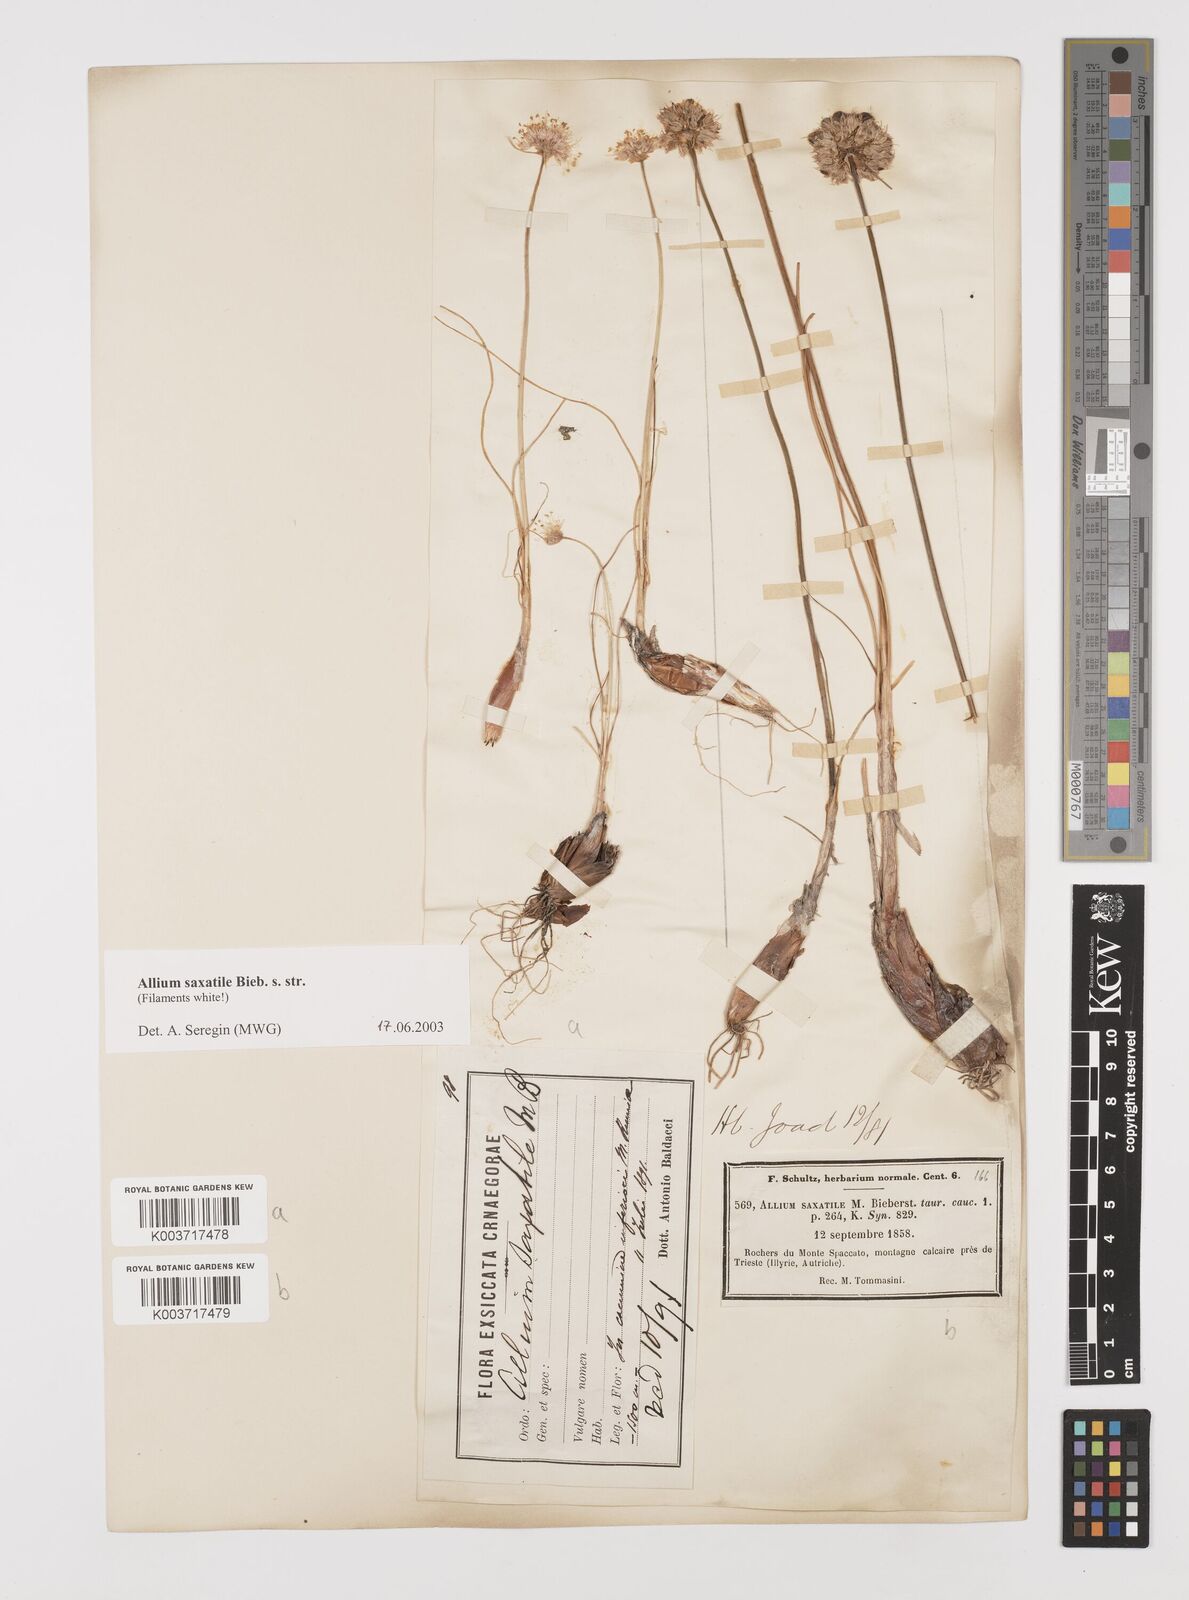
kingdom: Plantae
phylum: Tracheophyta
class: Liliopsida
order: Asparagales
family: Amaryllidaceae
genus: Allium
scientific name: Allium saxatile
